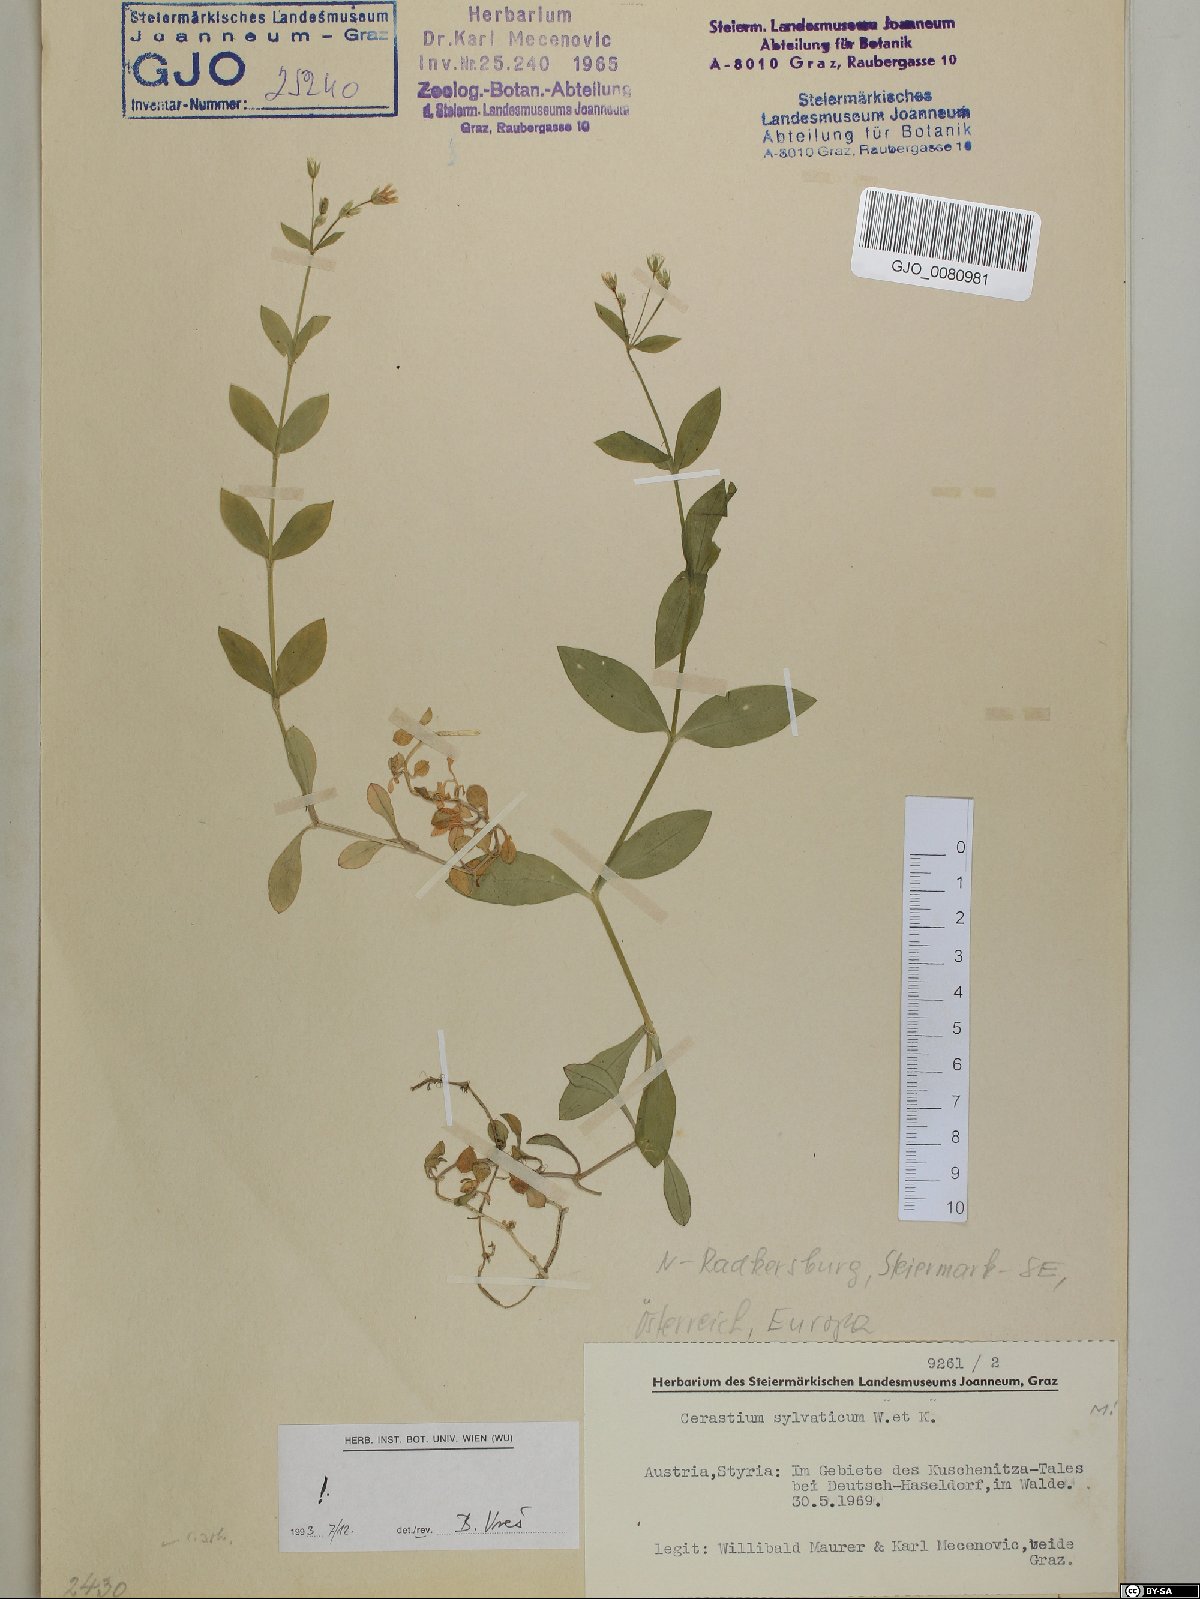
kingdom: Plantae
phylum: Tracheophyta
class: Magnoliopsida
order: Caryophyllales
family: Caryophyllaceae
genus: Cerastium
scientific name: Cerastium sylvaticum
